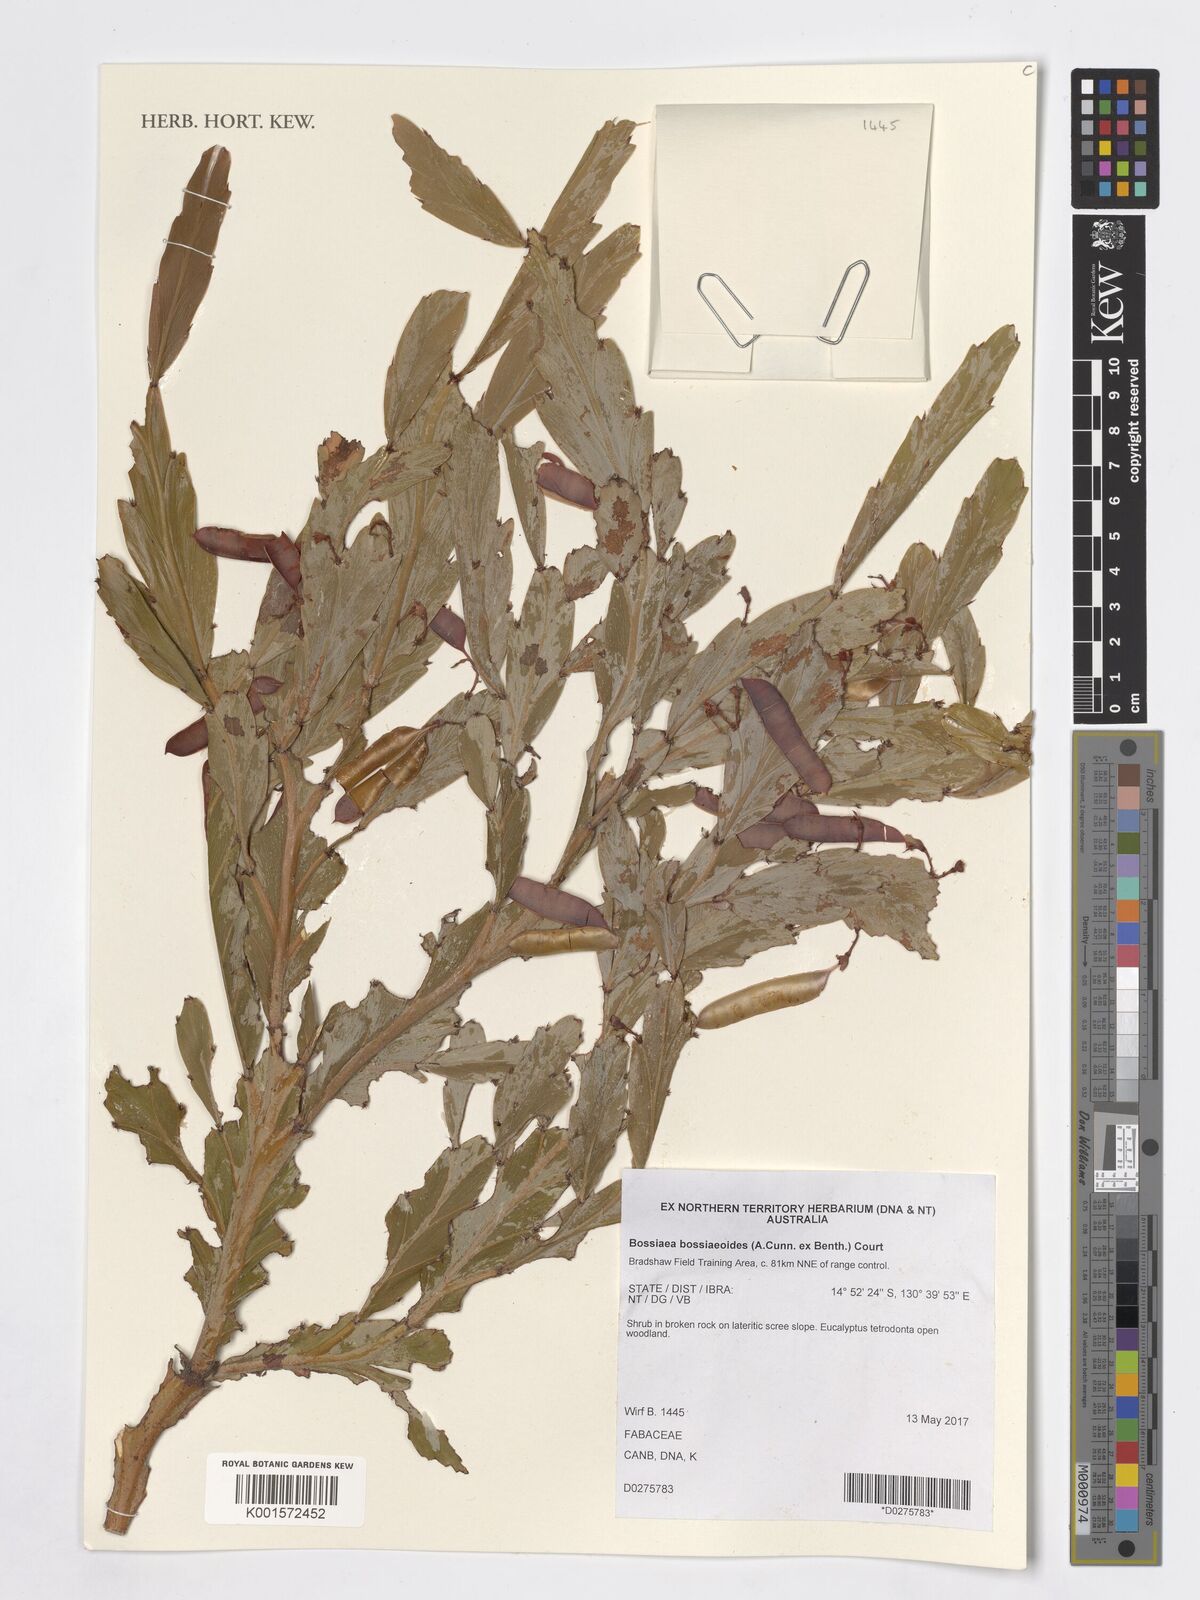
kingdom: Plantae
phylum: Tracheophyta
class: Magnoliopsida
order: Fabales
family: Fabaceae
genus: Bossiaea
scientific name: Bossiaea bossiaeoides
